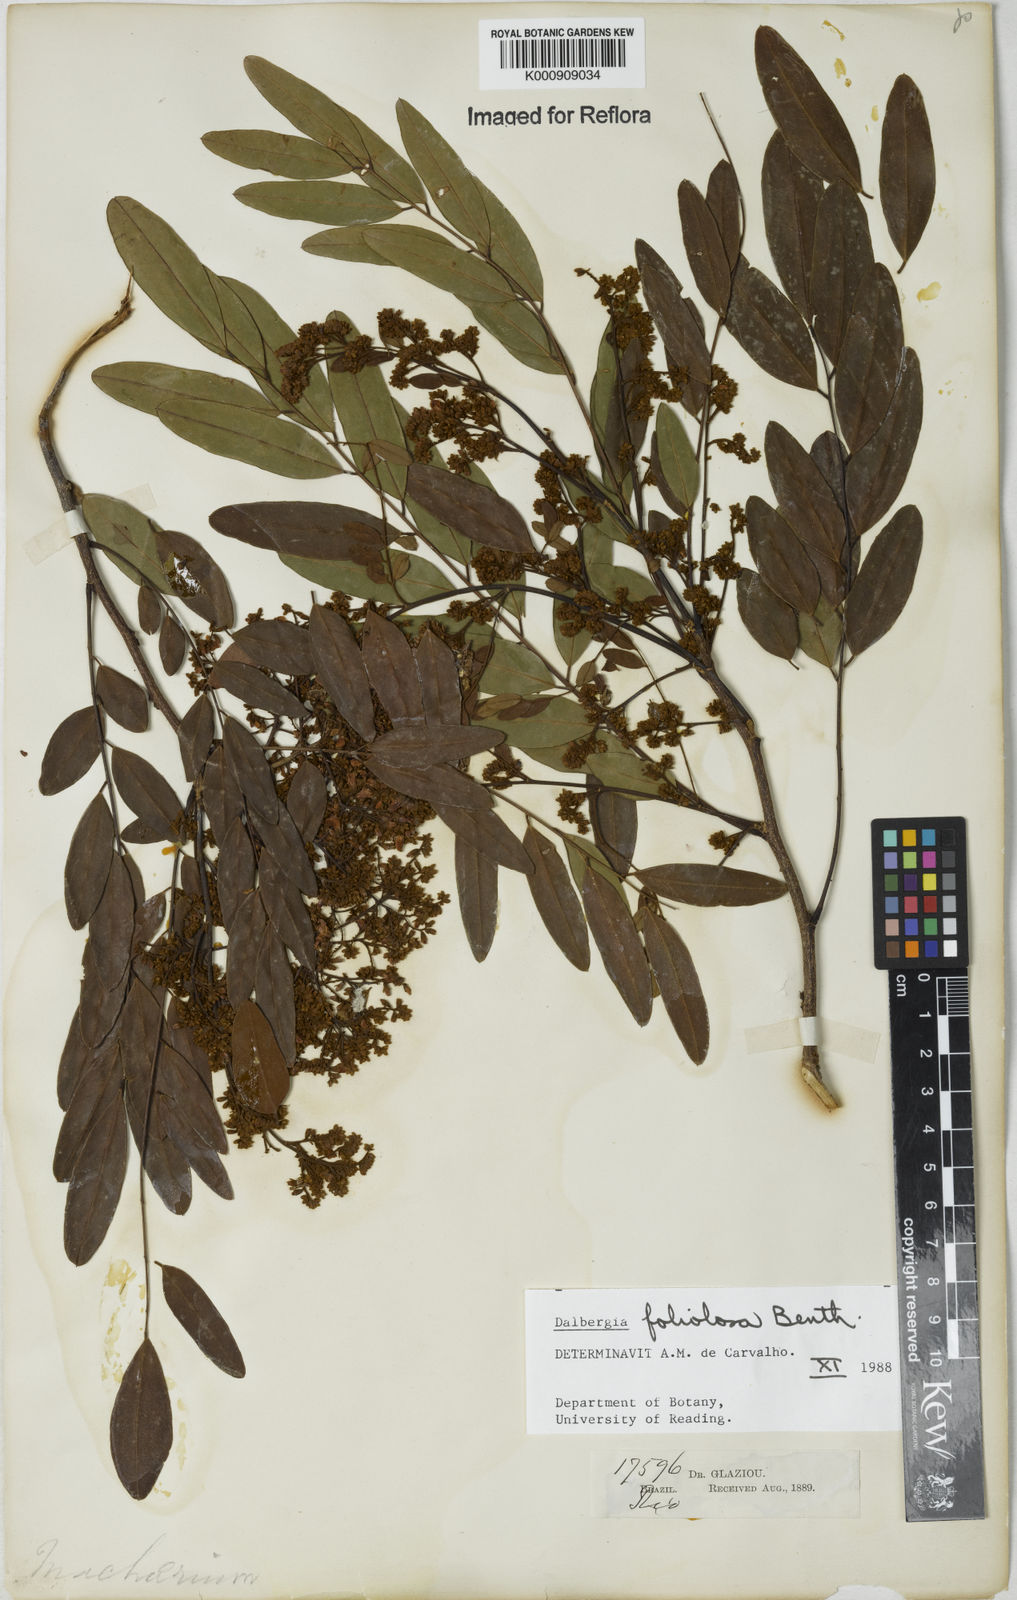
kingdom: Plantae
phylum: Tracheophyta
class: Magnoliopsida
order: Fabales
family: Fabaceae
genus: Dalbergia
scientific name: Dalbergia foliolosa
